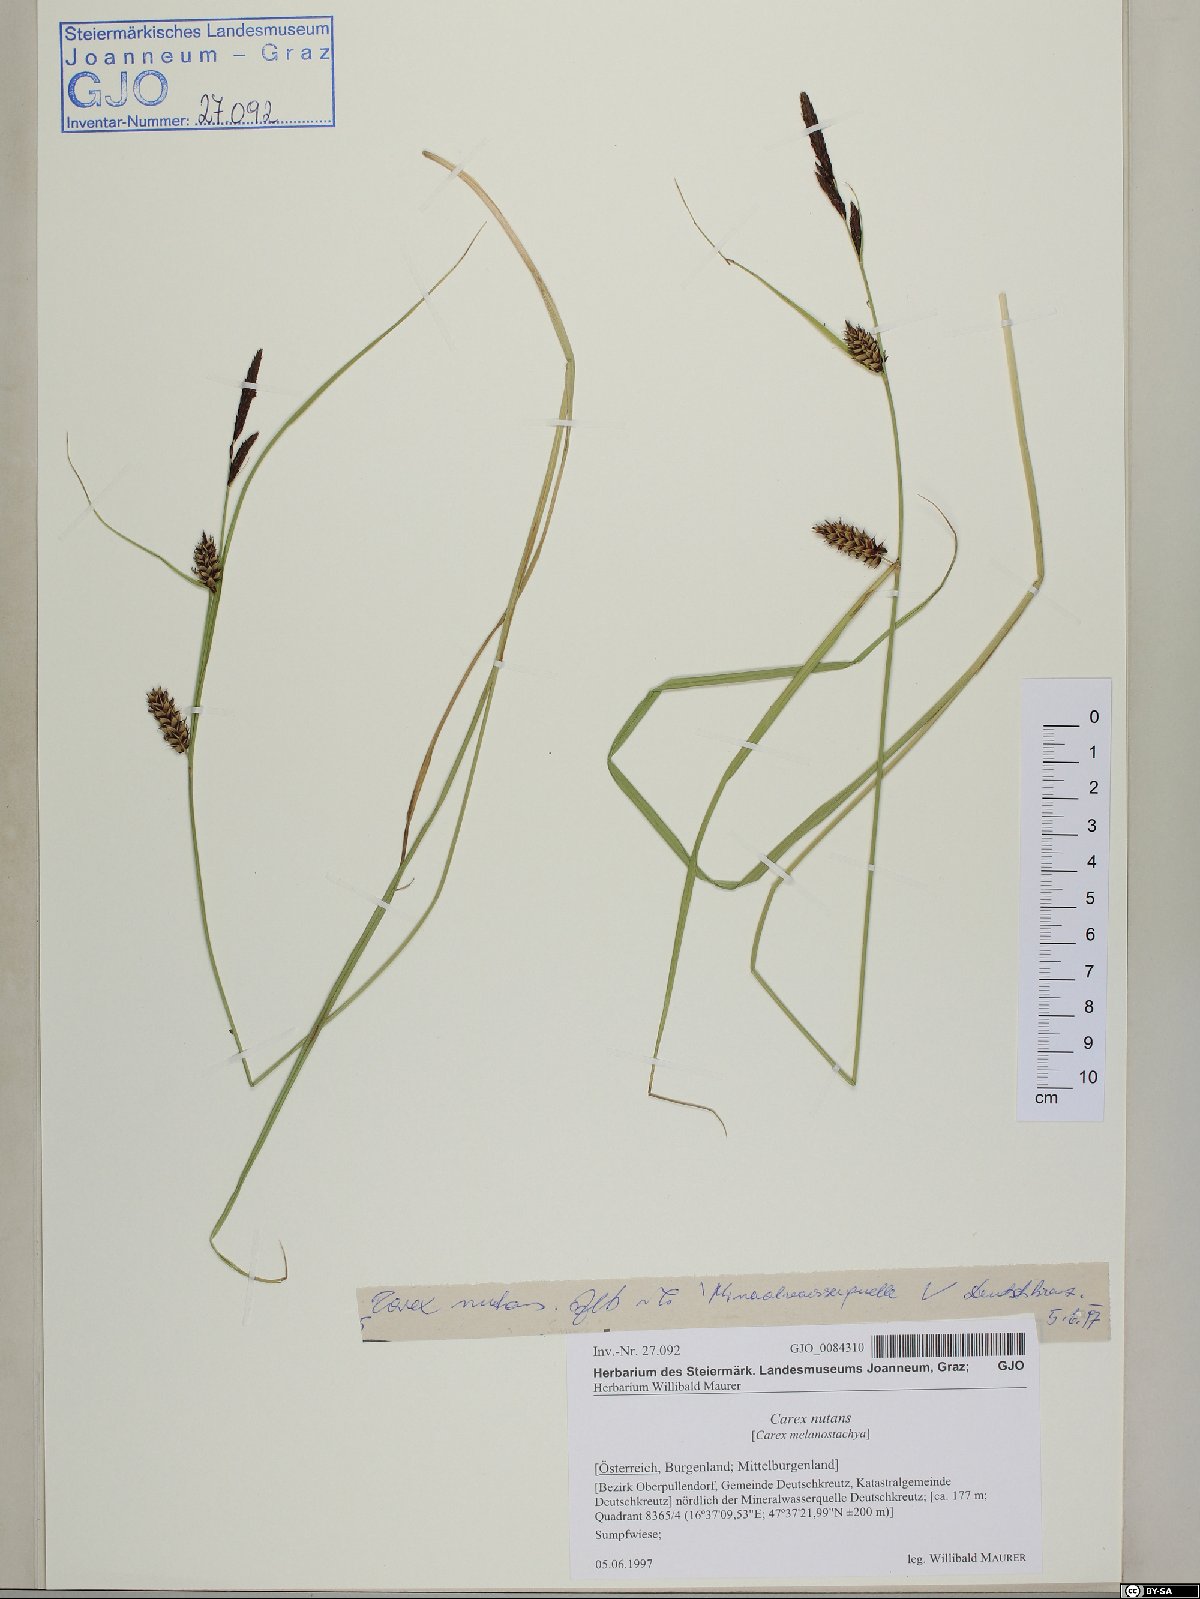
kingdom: Plantae
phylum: Tracheophyta
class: Liliopsida
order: Poales
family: Cyperaceae
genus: Carex
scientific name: Carex melanostachya
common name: Black-spiked sedge
